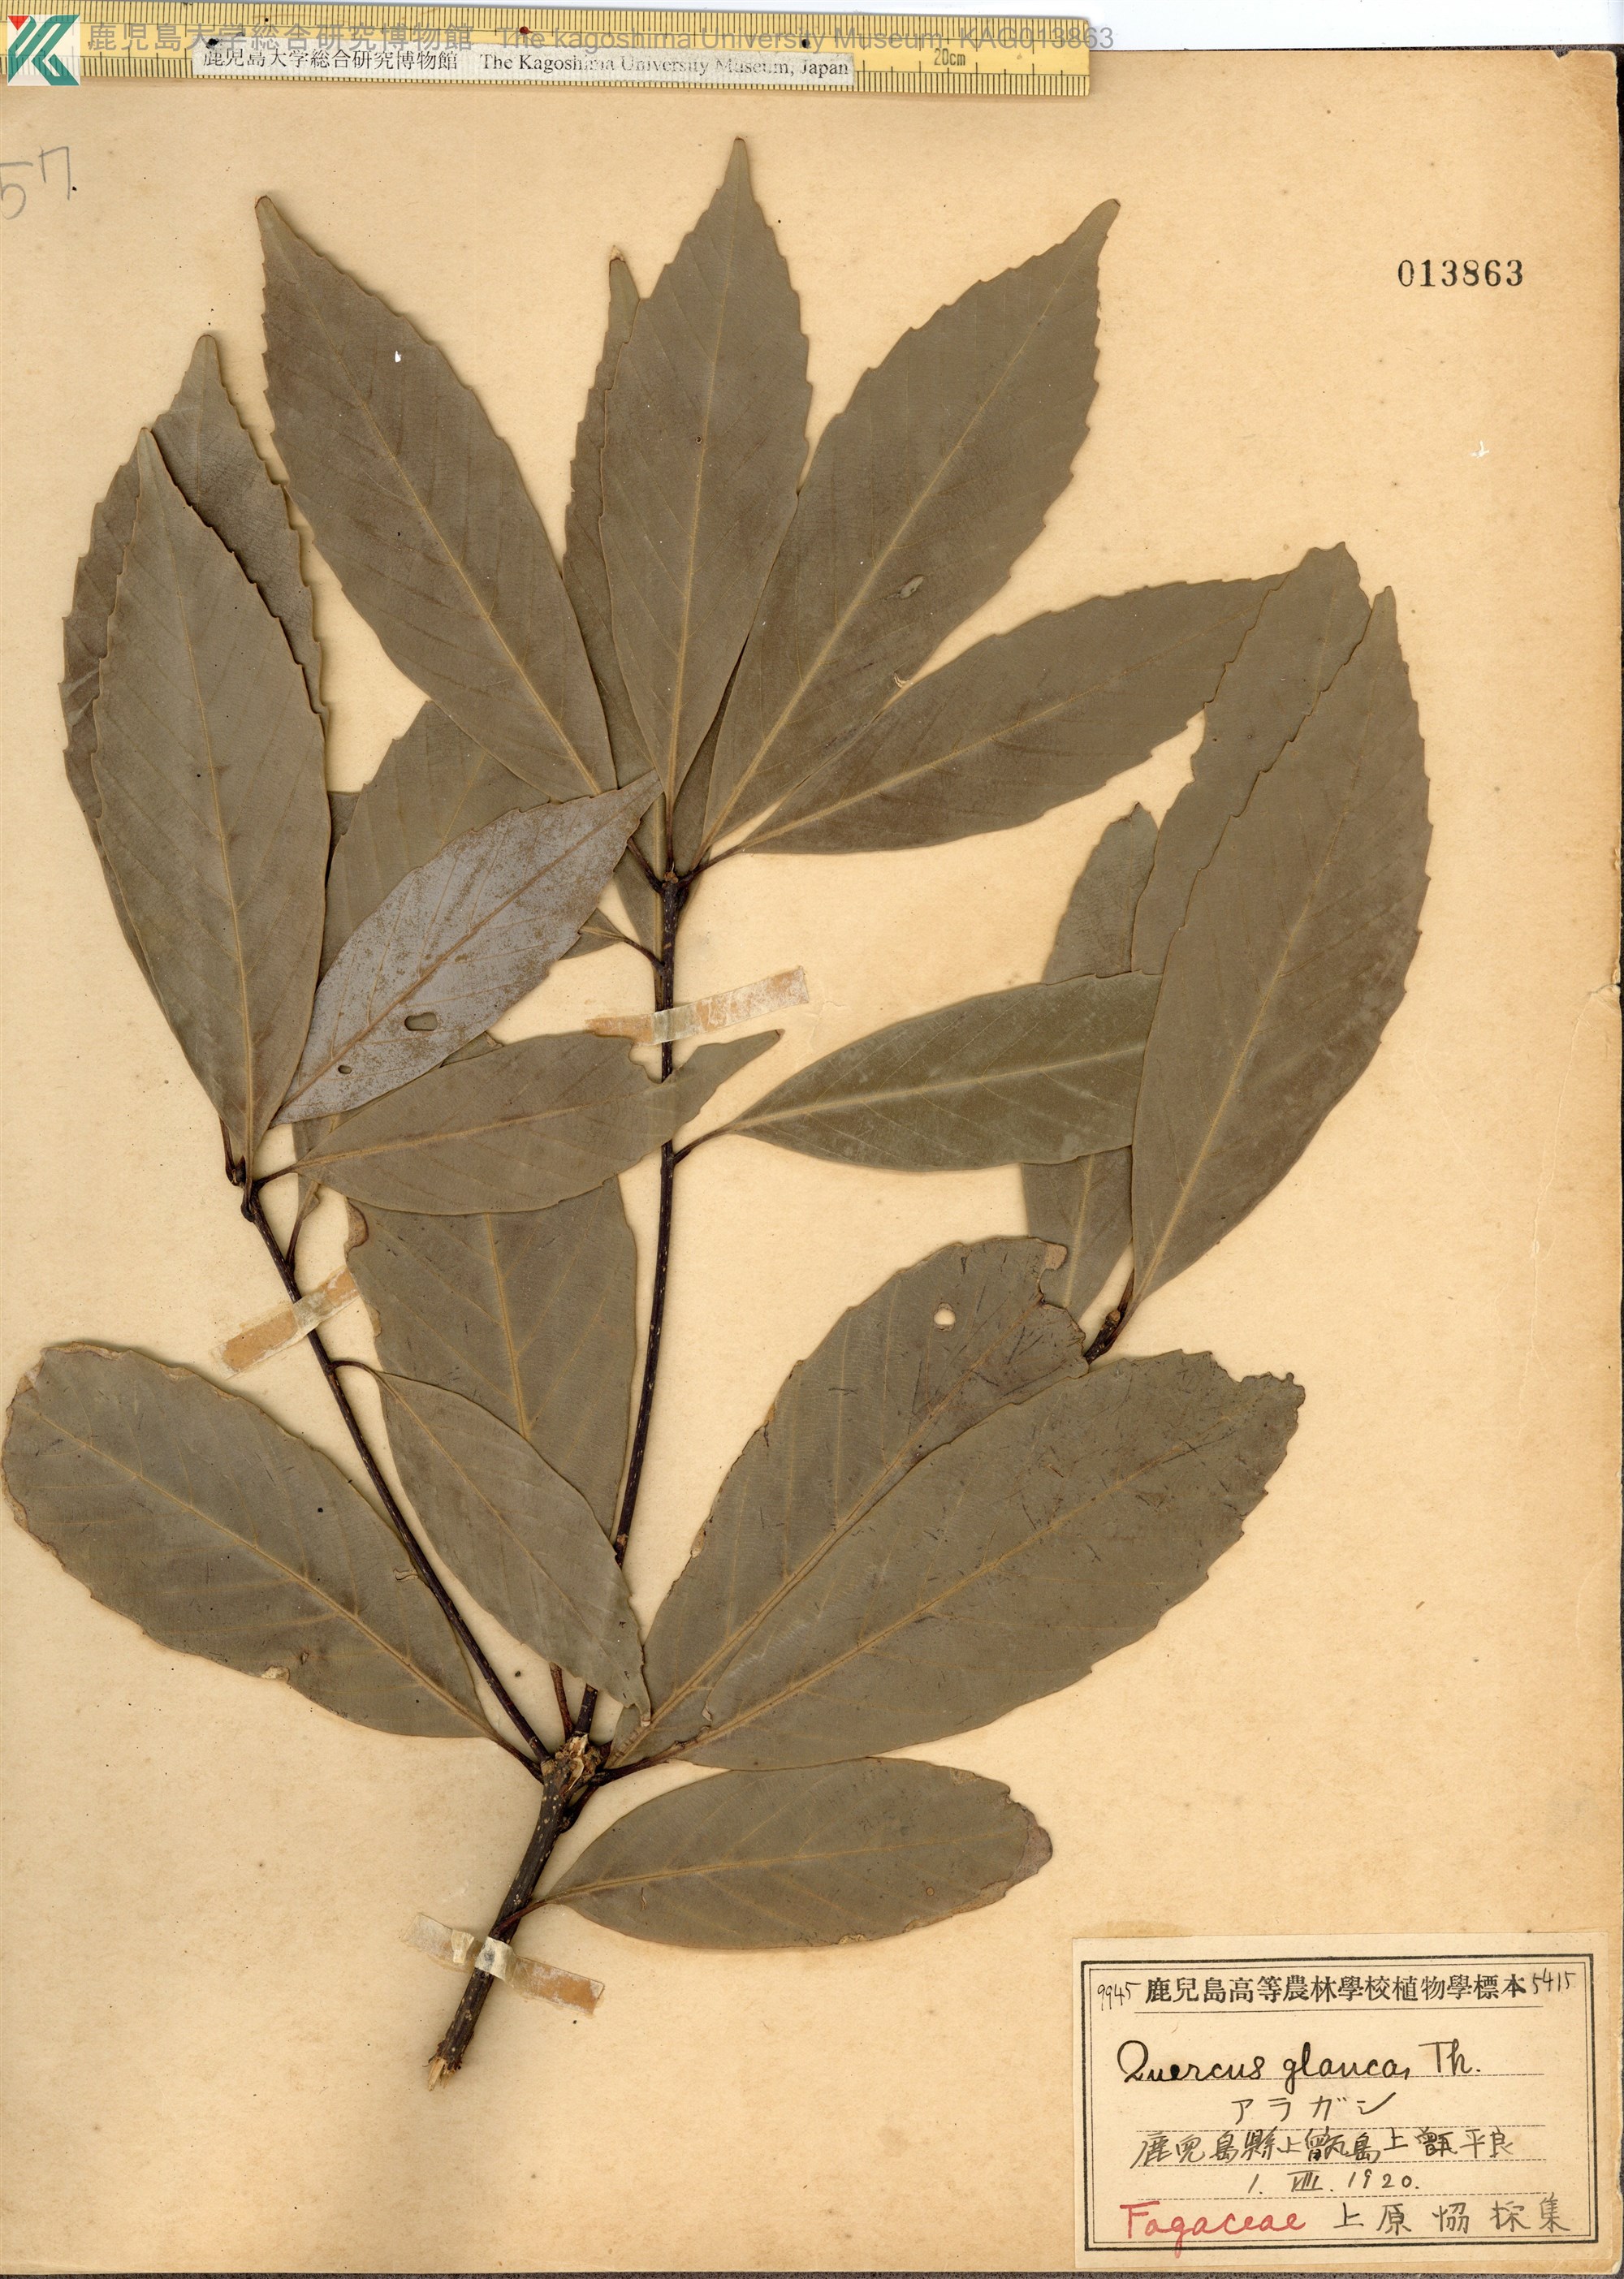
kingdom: Plantae
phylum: Tracheophyta
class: Magnoliopsida
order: Fagales
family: Fagaceae
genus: Quercus
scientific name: Quercus glauca
